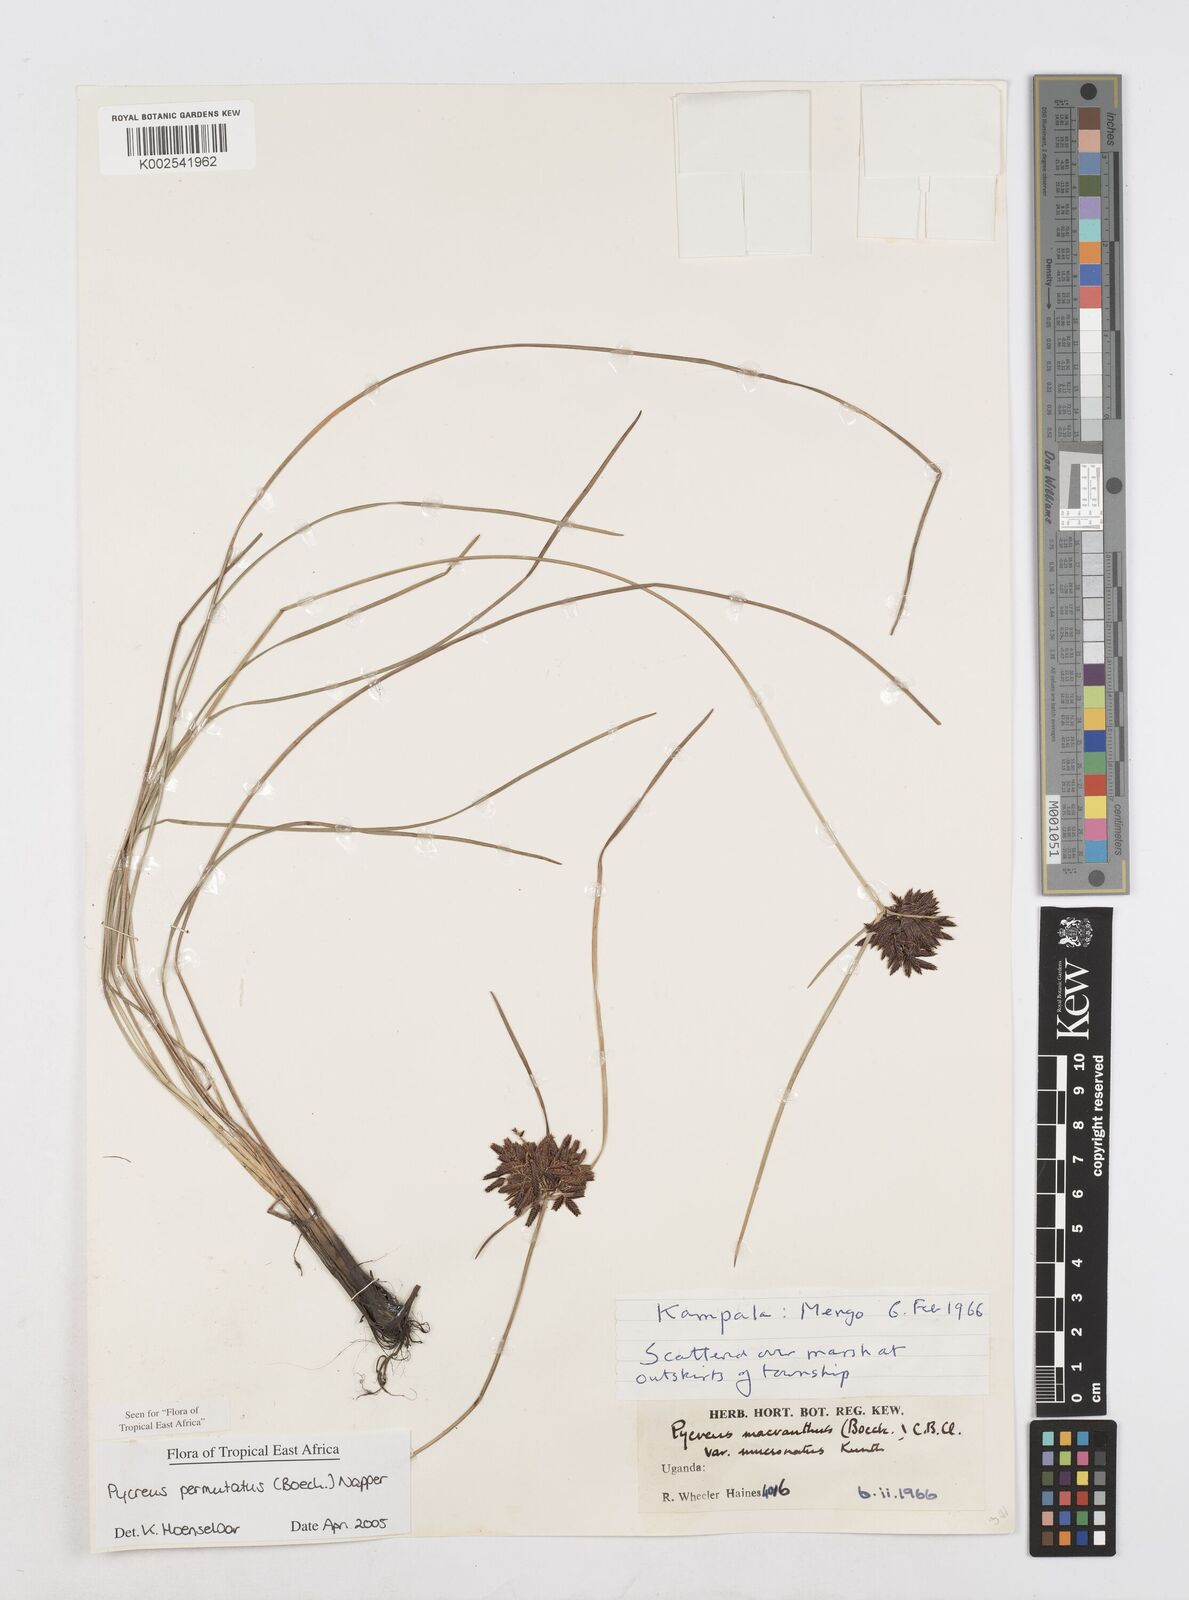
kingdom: Plantae
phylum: Tracheophyta
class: Liliopsida
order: Poales
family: Cyperaceae
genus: Cyperus
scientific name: Cyperus nigricans
